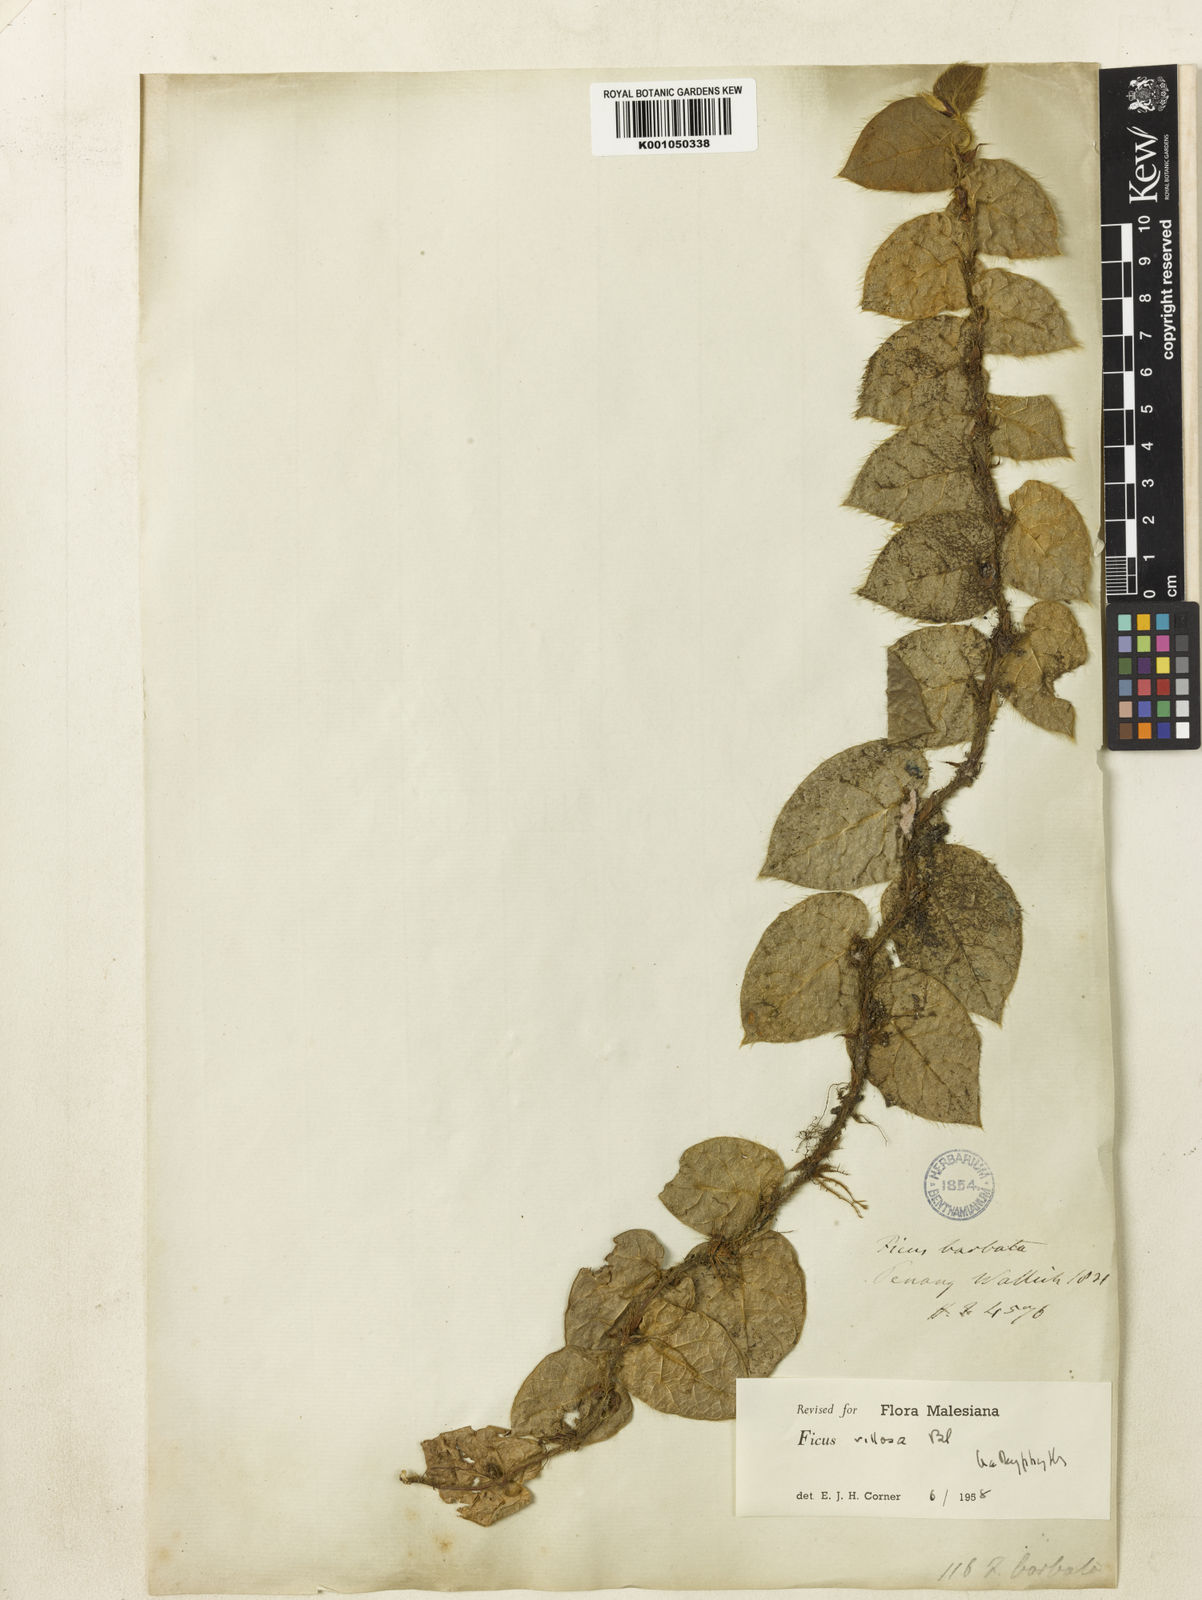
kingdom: Plantae
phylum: Tracheophyta
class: Magnoliopsida
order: Rosales
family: Moraceae
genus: Ficus
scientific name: Ficus villosa
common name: Villous fig
